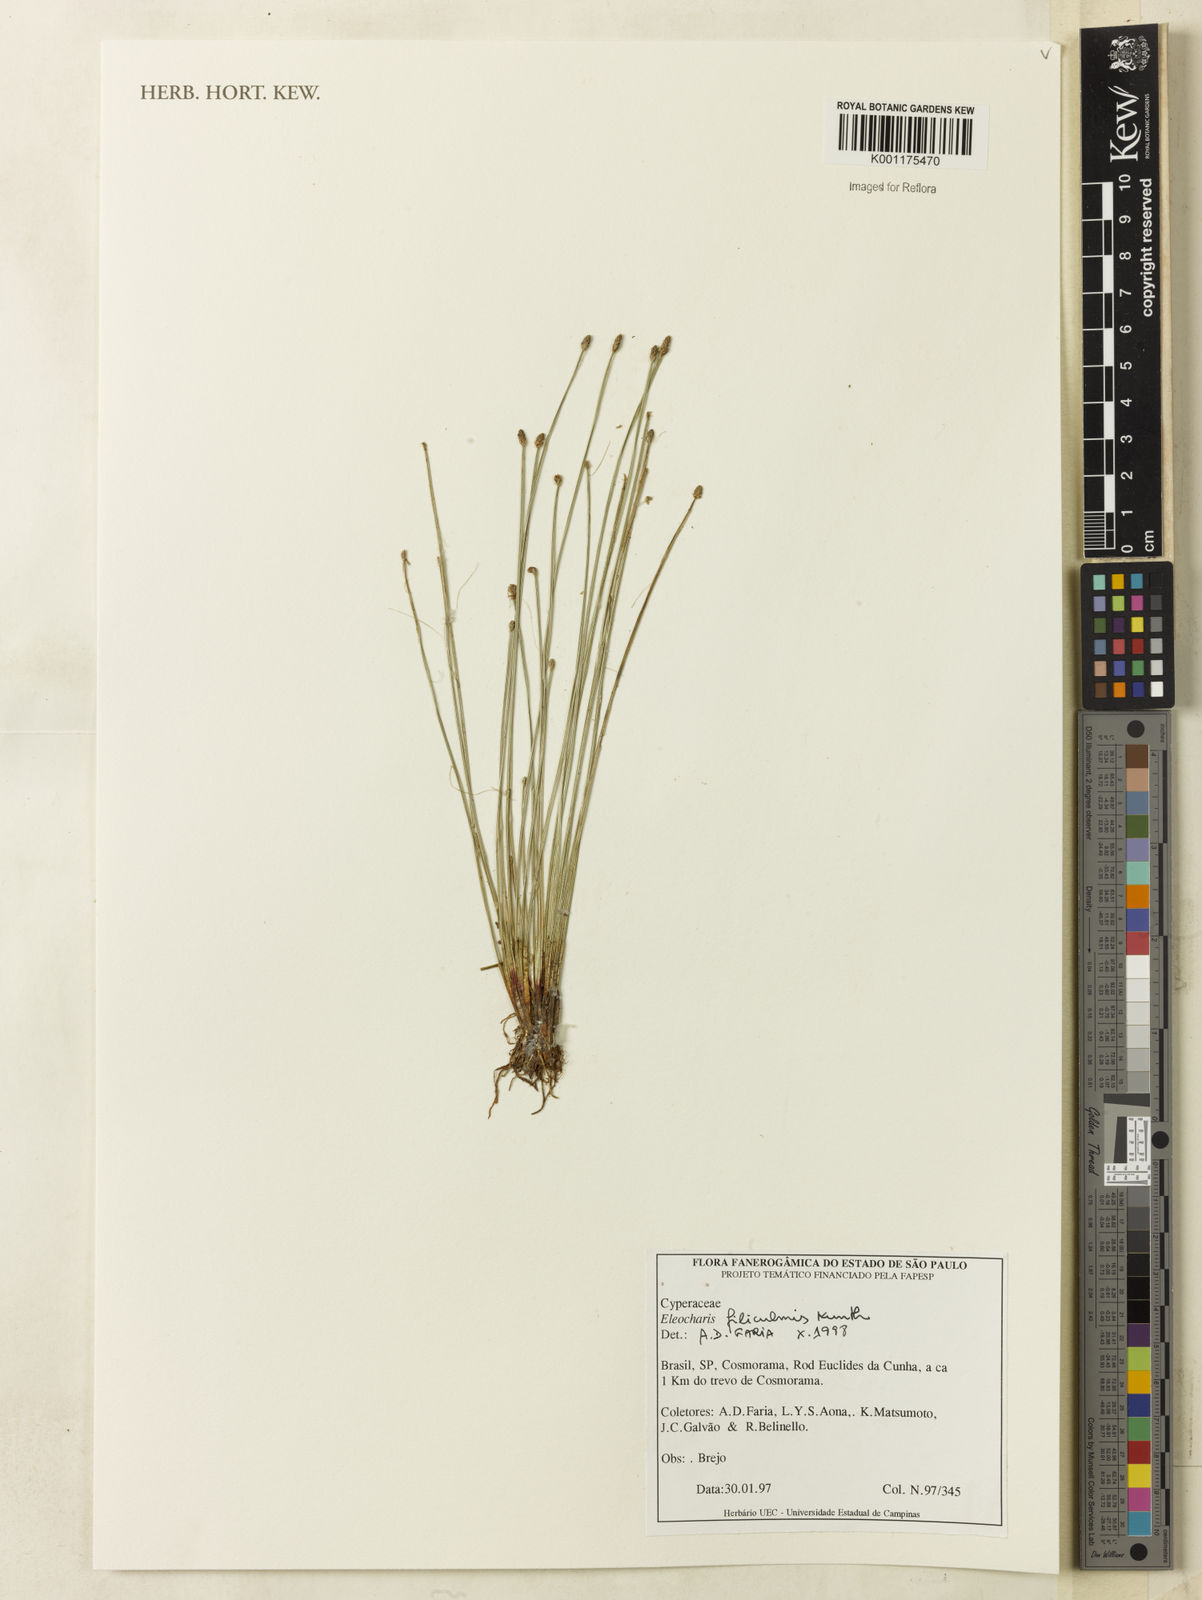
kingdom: Plantae
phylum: Tracheophyta
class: Liliopsida
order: Poales
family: Cyperaceae
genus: Eleocharis
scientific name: Eleocharis filiculmis
